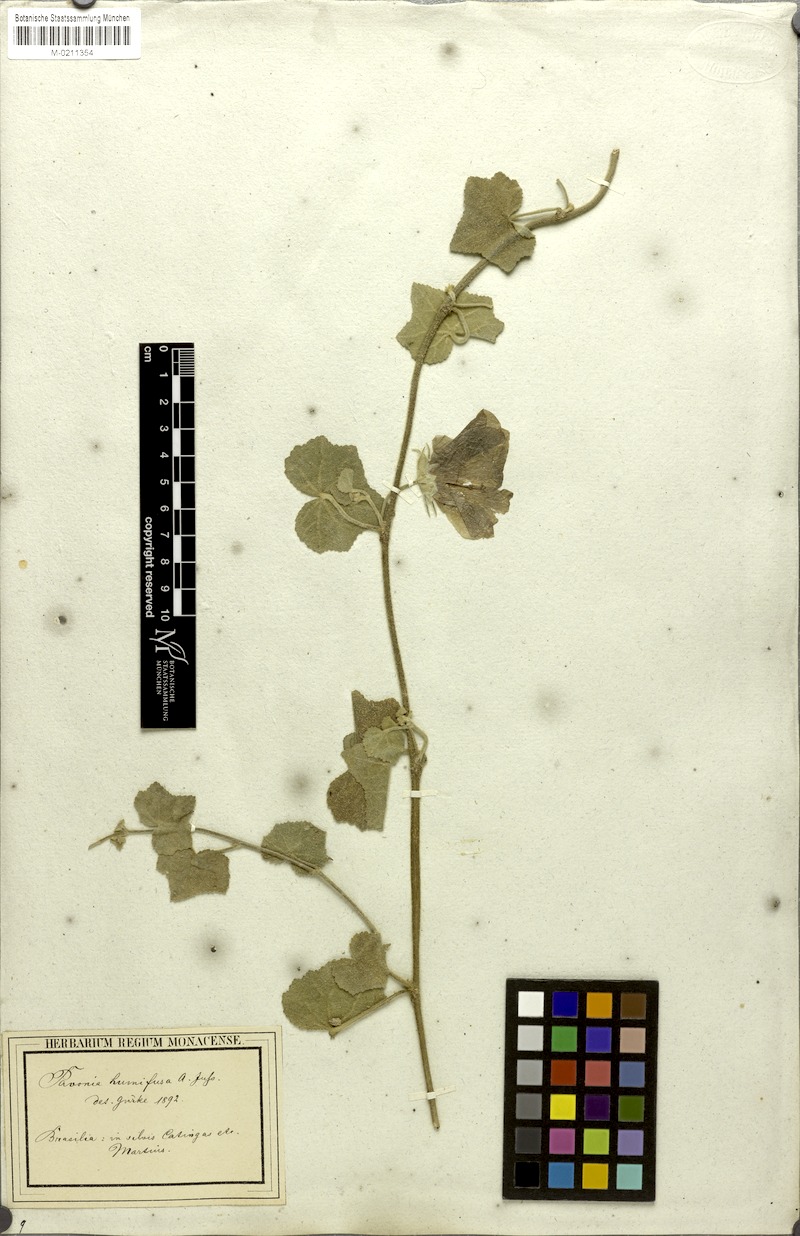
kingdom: Plantae
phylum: Tracheophyta
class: Magnoliopsida
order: Malvales
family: Malvaceae
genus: Pavonia
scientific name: Pavonia humifusa
